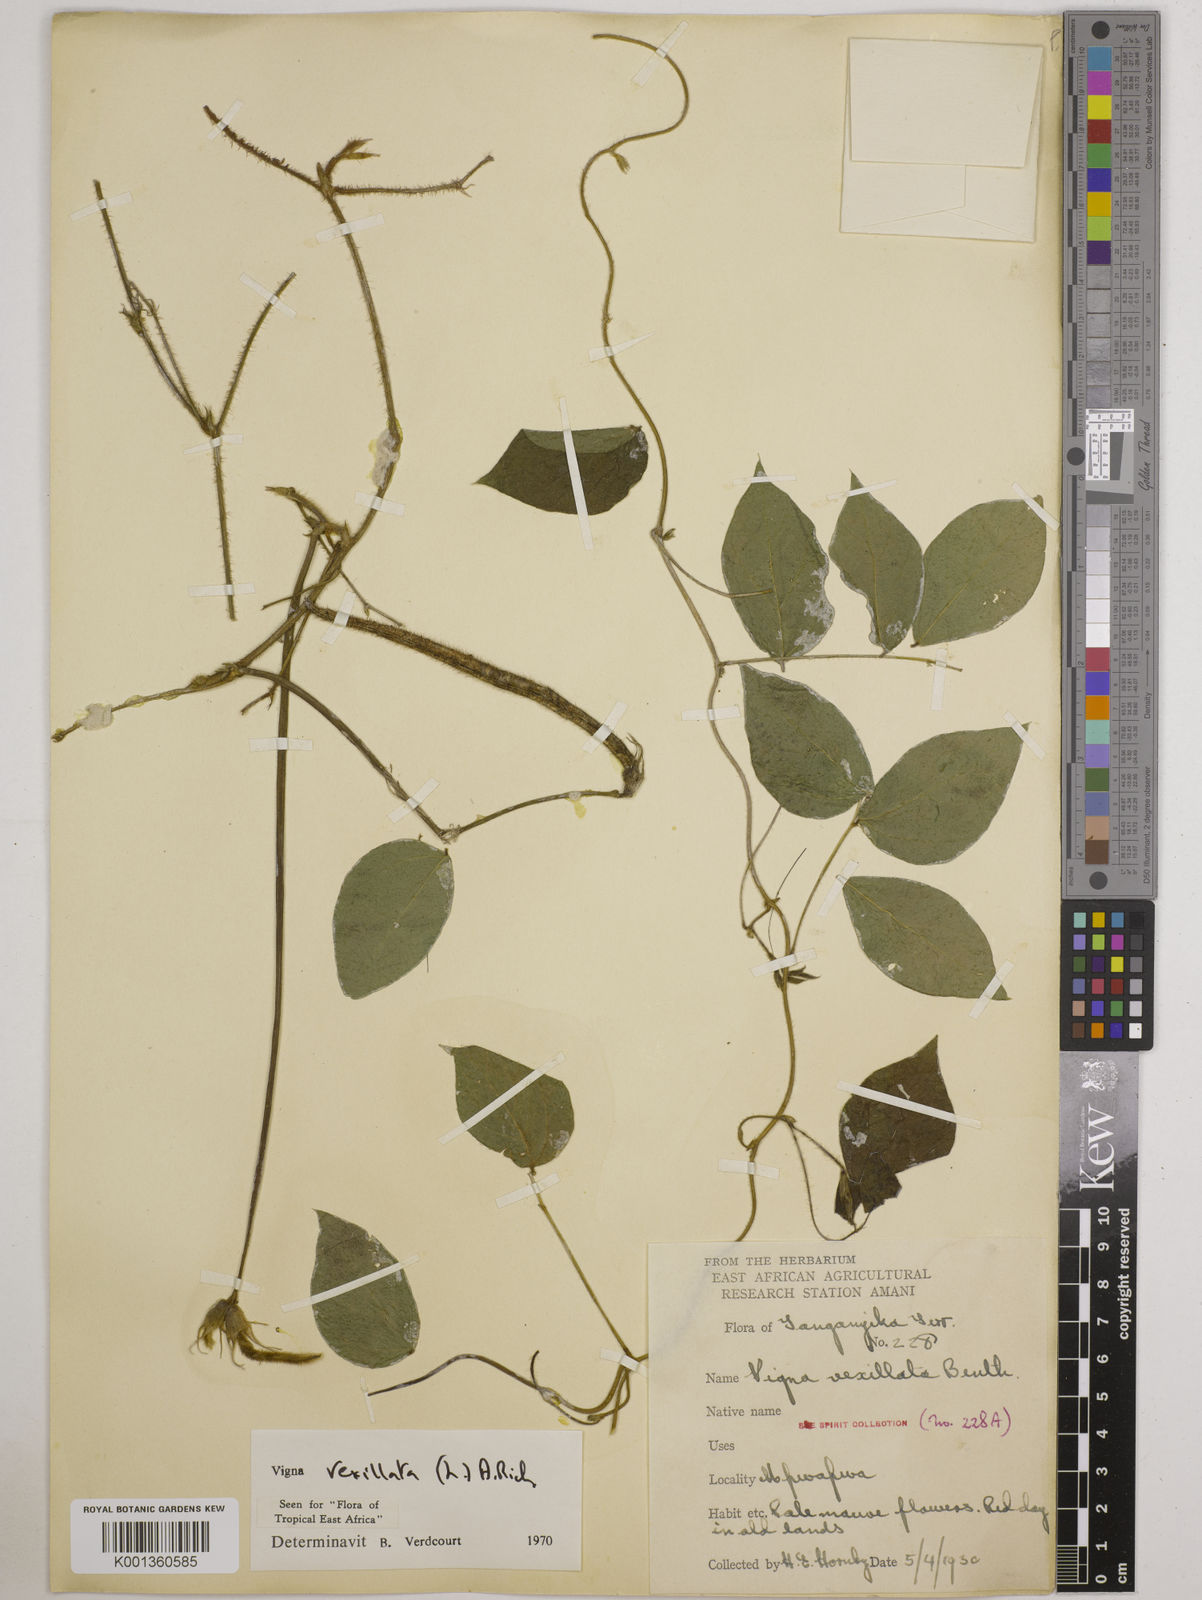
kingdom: Plantae
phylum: Tracheophyta
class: Magnoliopsida
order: Fabales
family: Fabaceae
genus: Vigna
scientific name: Vigna vexillata
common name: Zombi pea
